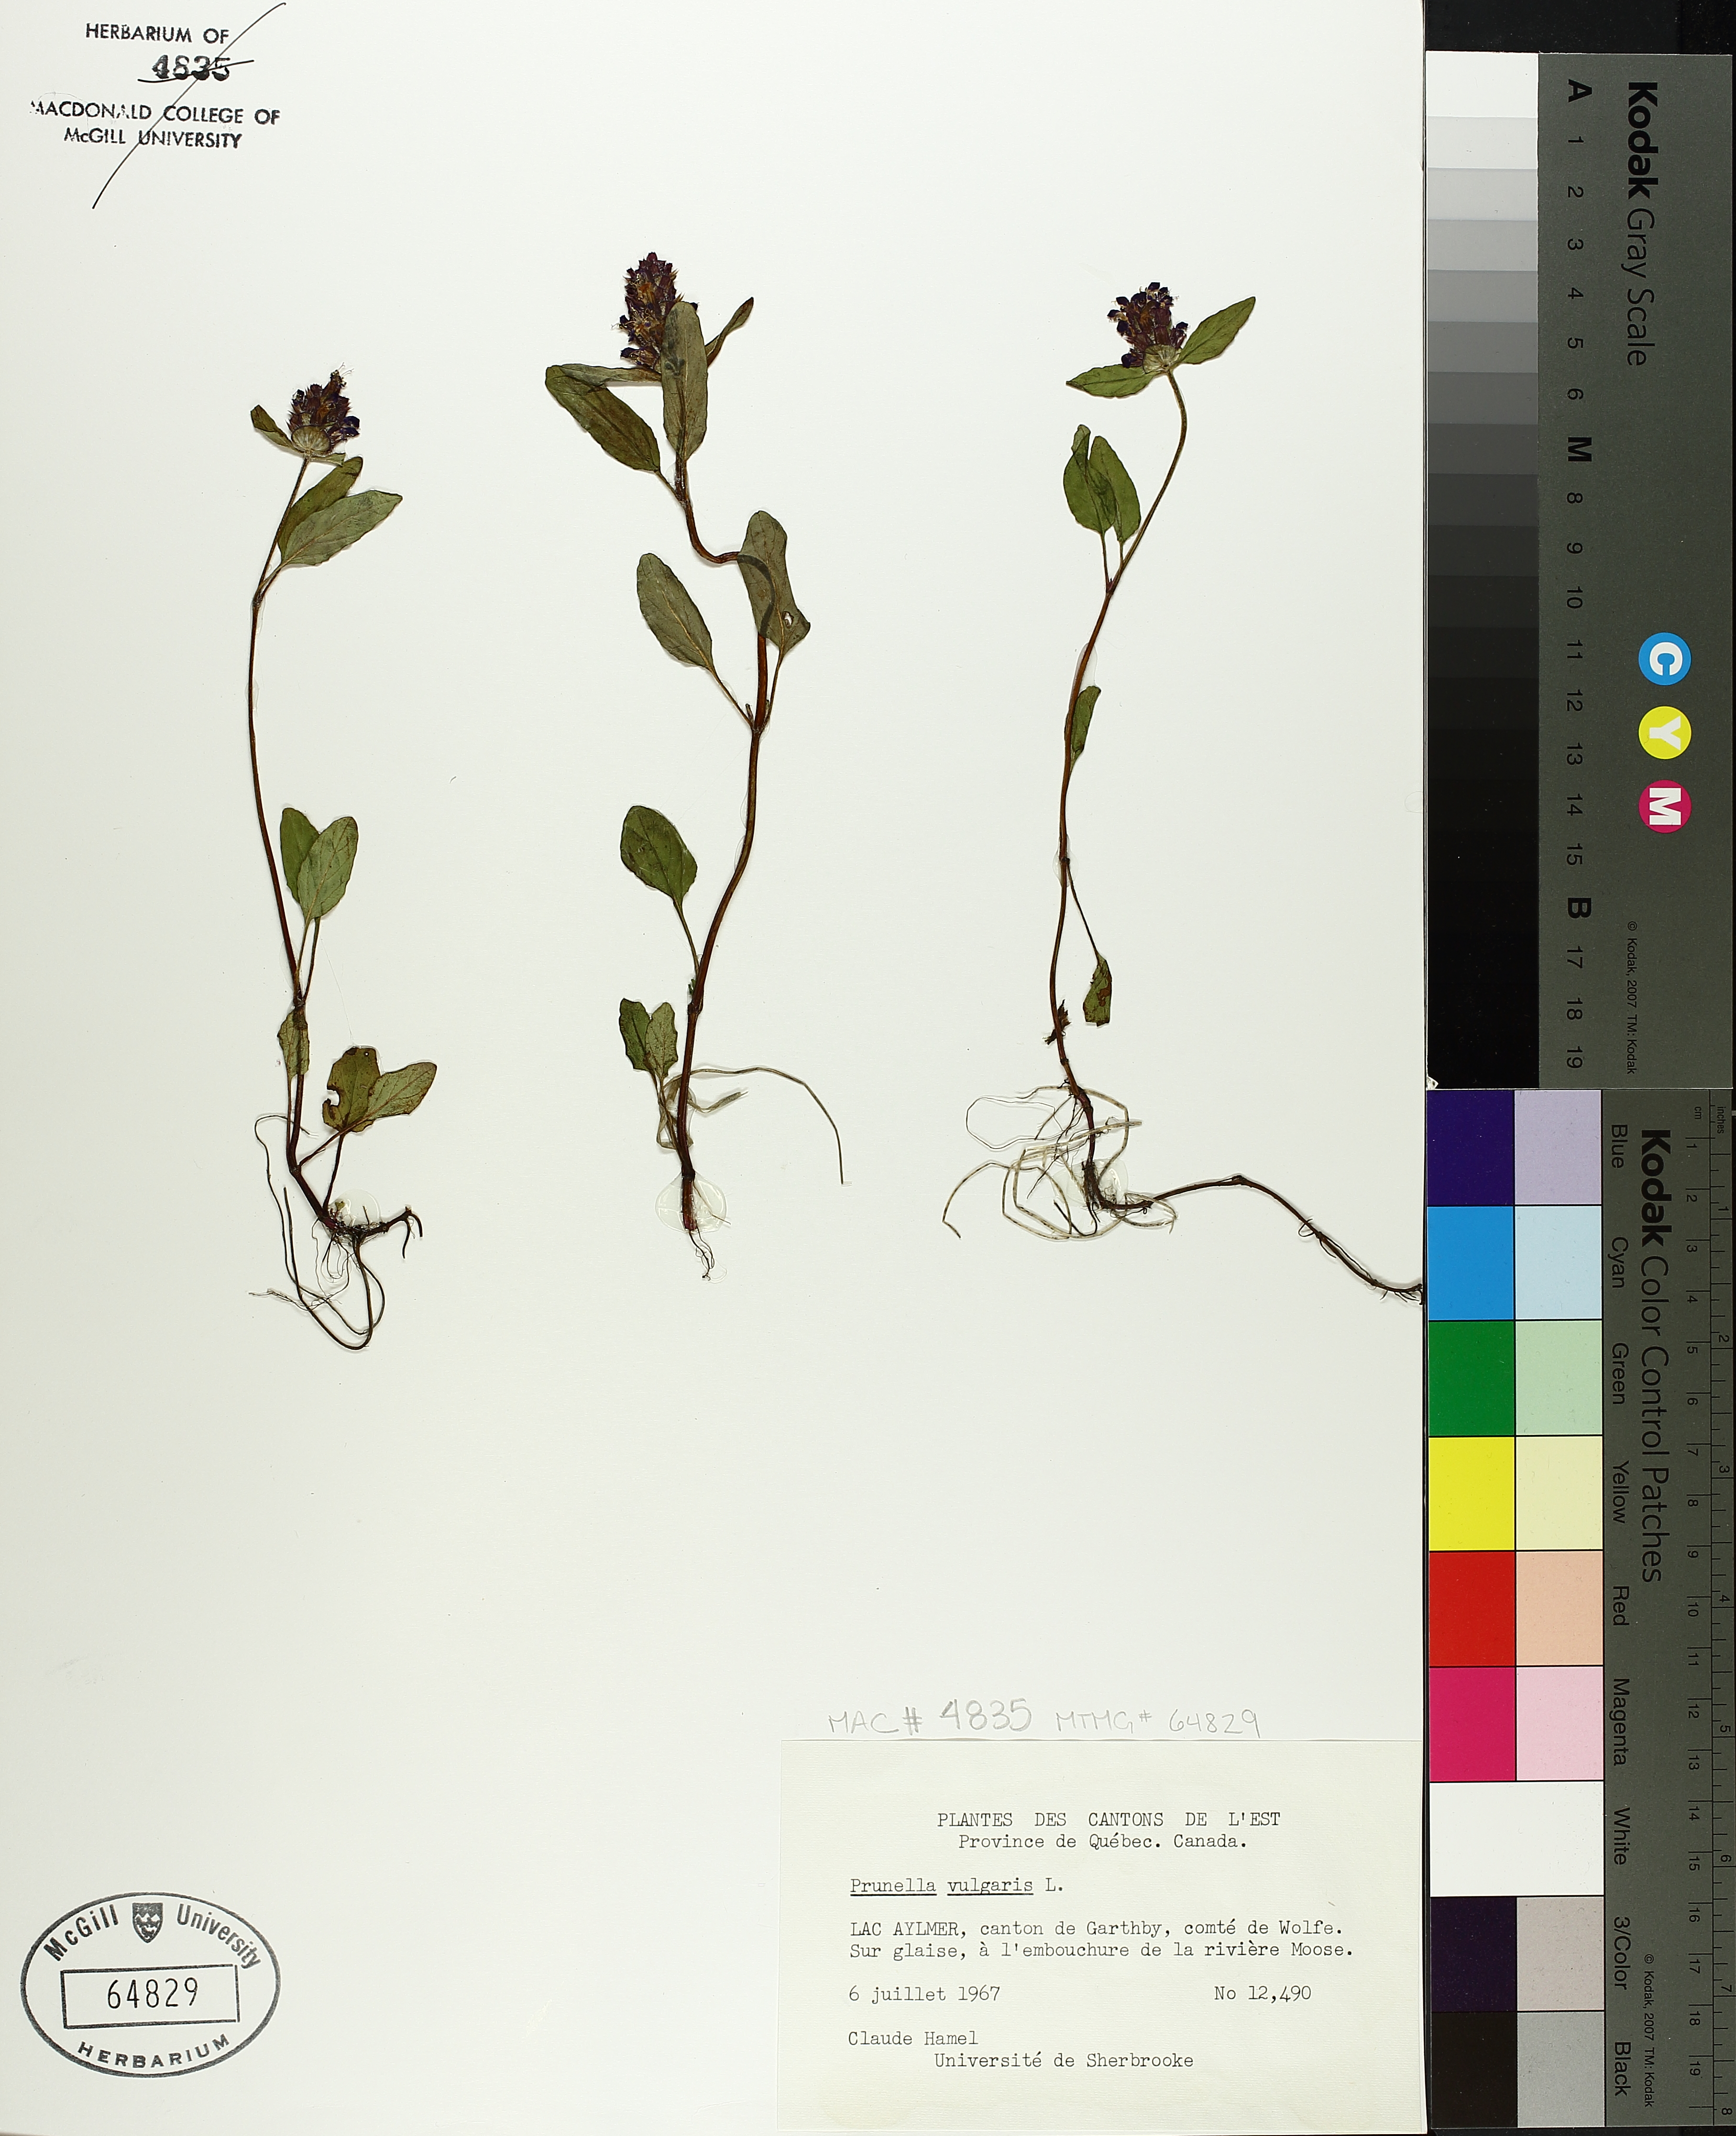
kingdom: Plantae
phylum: Tracheophyta
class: Magnoliopsida
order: Lamiales
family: Lamiaceae
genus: Prunella
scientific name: Prunella vulgaris
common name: Heal-all
